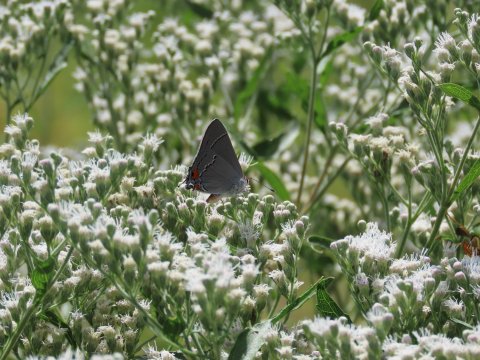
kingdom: Animalia
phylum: Arthropoda
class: Insecta
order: Lepidoptera
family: Lycaenidae
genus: Strymon
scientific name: Strymon melinus
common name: Gray Hairstreak
